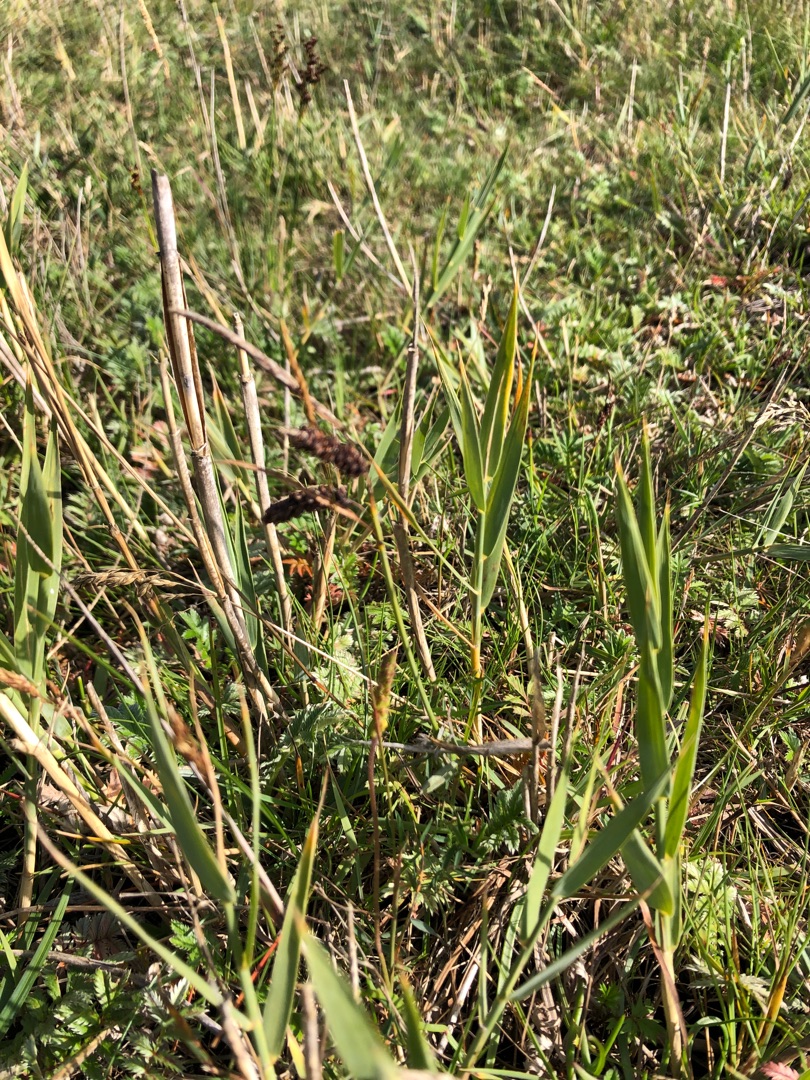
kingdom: Plantae
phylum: Tracheophyta
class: Liliopsida
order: Poales
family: Cyperaceae
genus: Carex
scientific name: Carex flacca
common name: Blågrøn star
